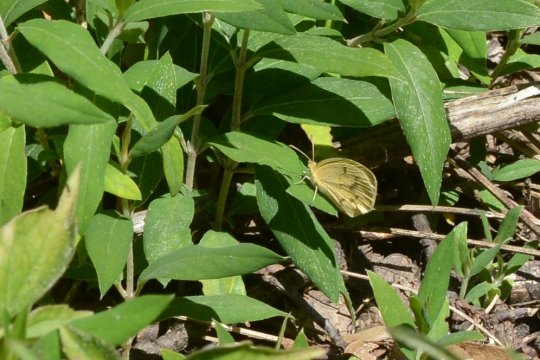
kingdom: Animalia
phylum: Arthropoda
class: Insecta
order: Lepidoptera
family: Pieridae
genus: Abaeis
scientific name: Abaeis nicippe
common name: Sleepy Orange
